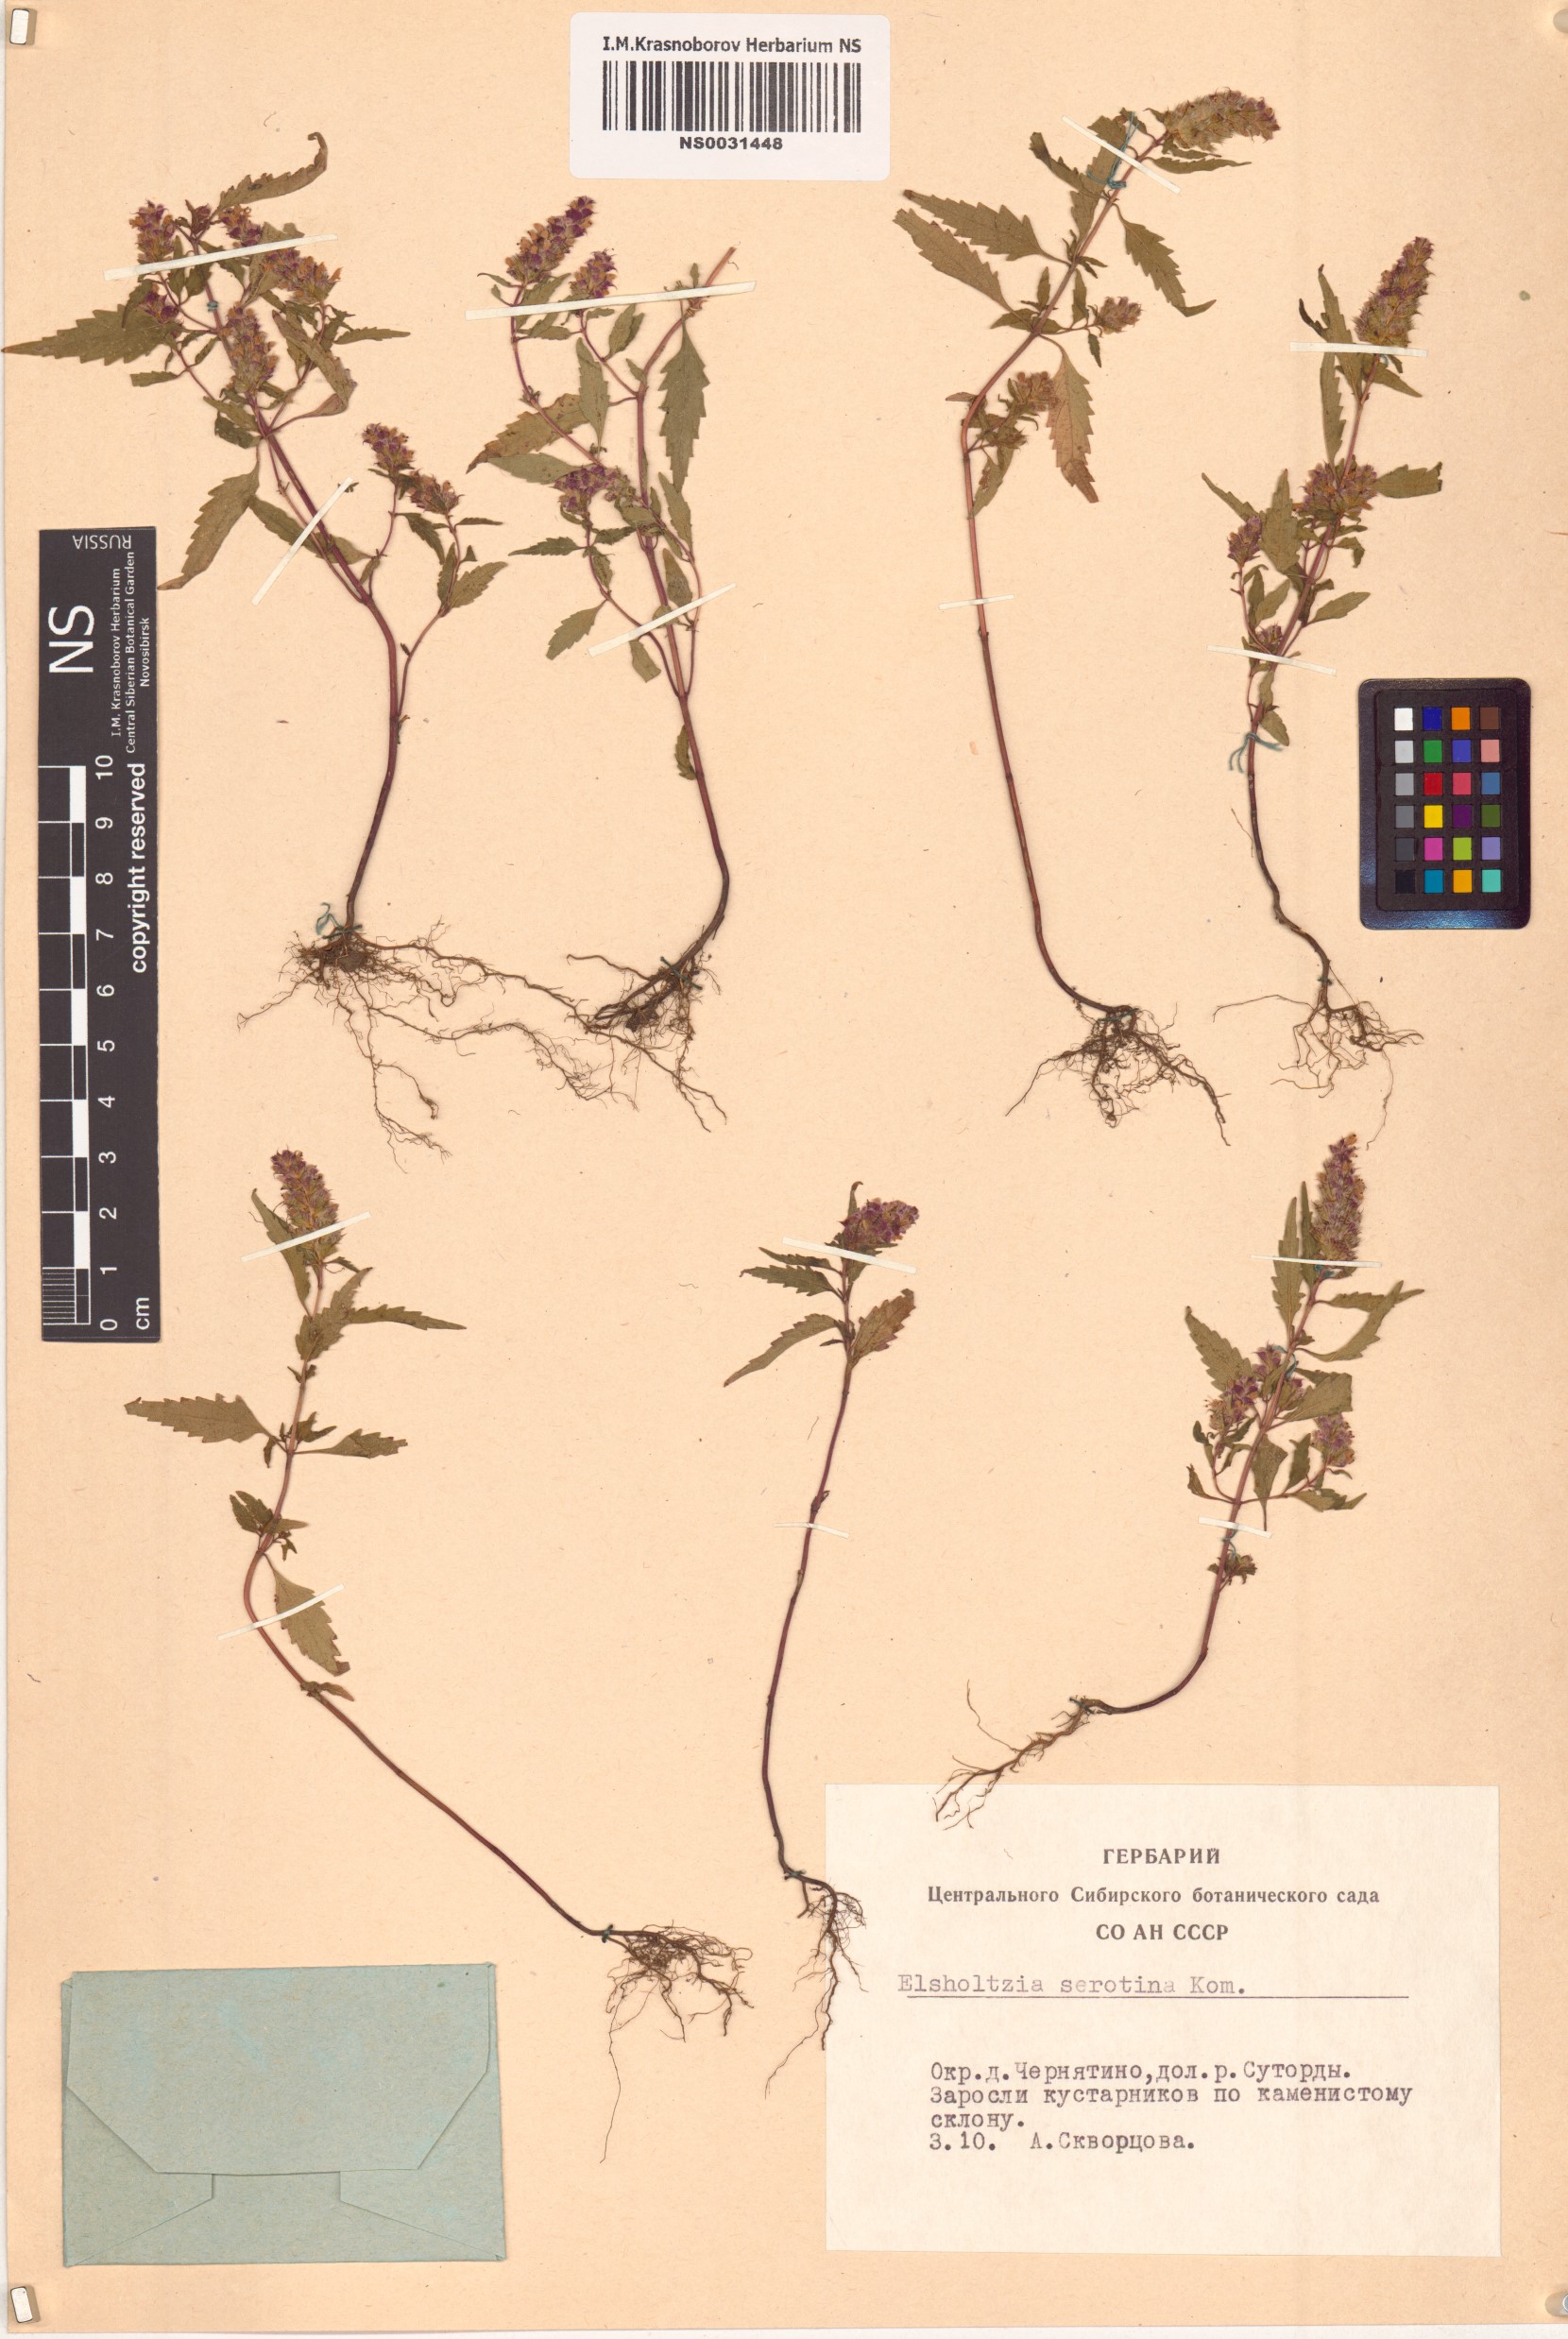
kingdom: Plantae
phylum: Tracheophyta
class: Magnoliopsida
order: Lamiales
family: Lamiaceae
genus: Elsholtzia
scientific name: Elsholtzia ciliata
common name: Ciliate elsholtzia
